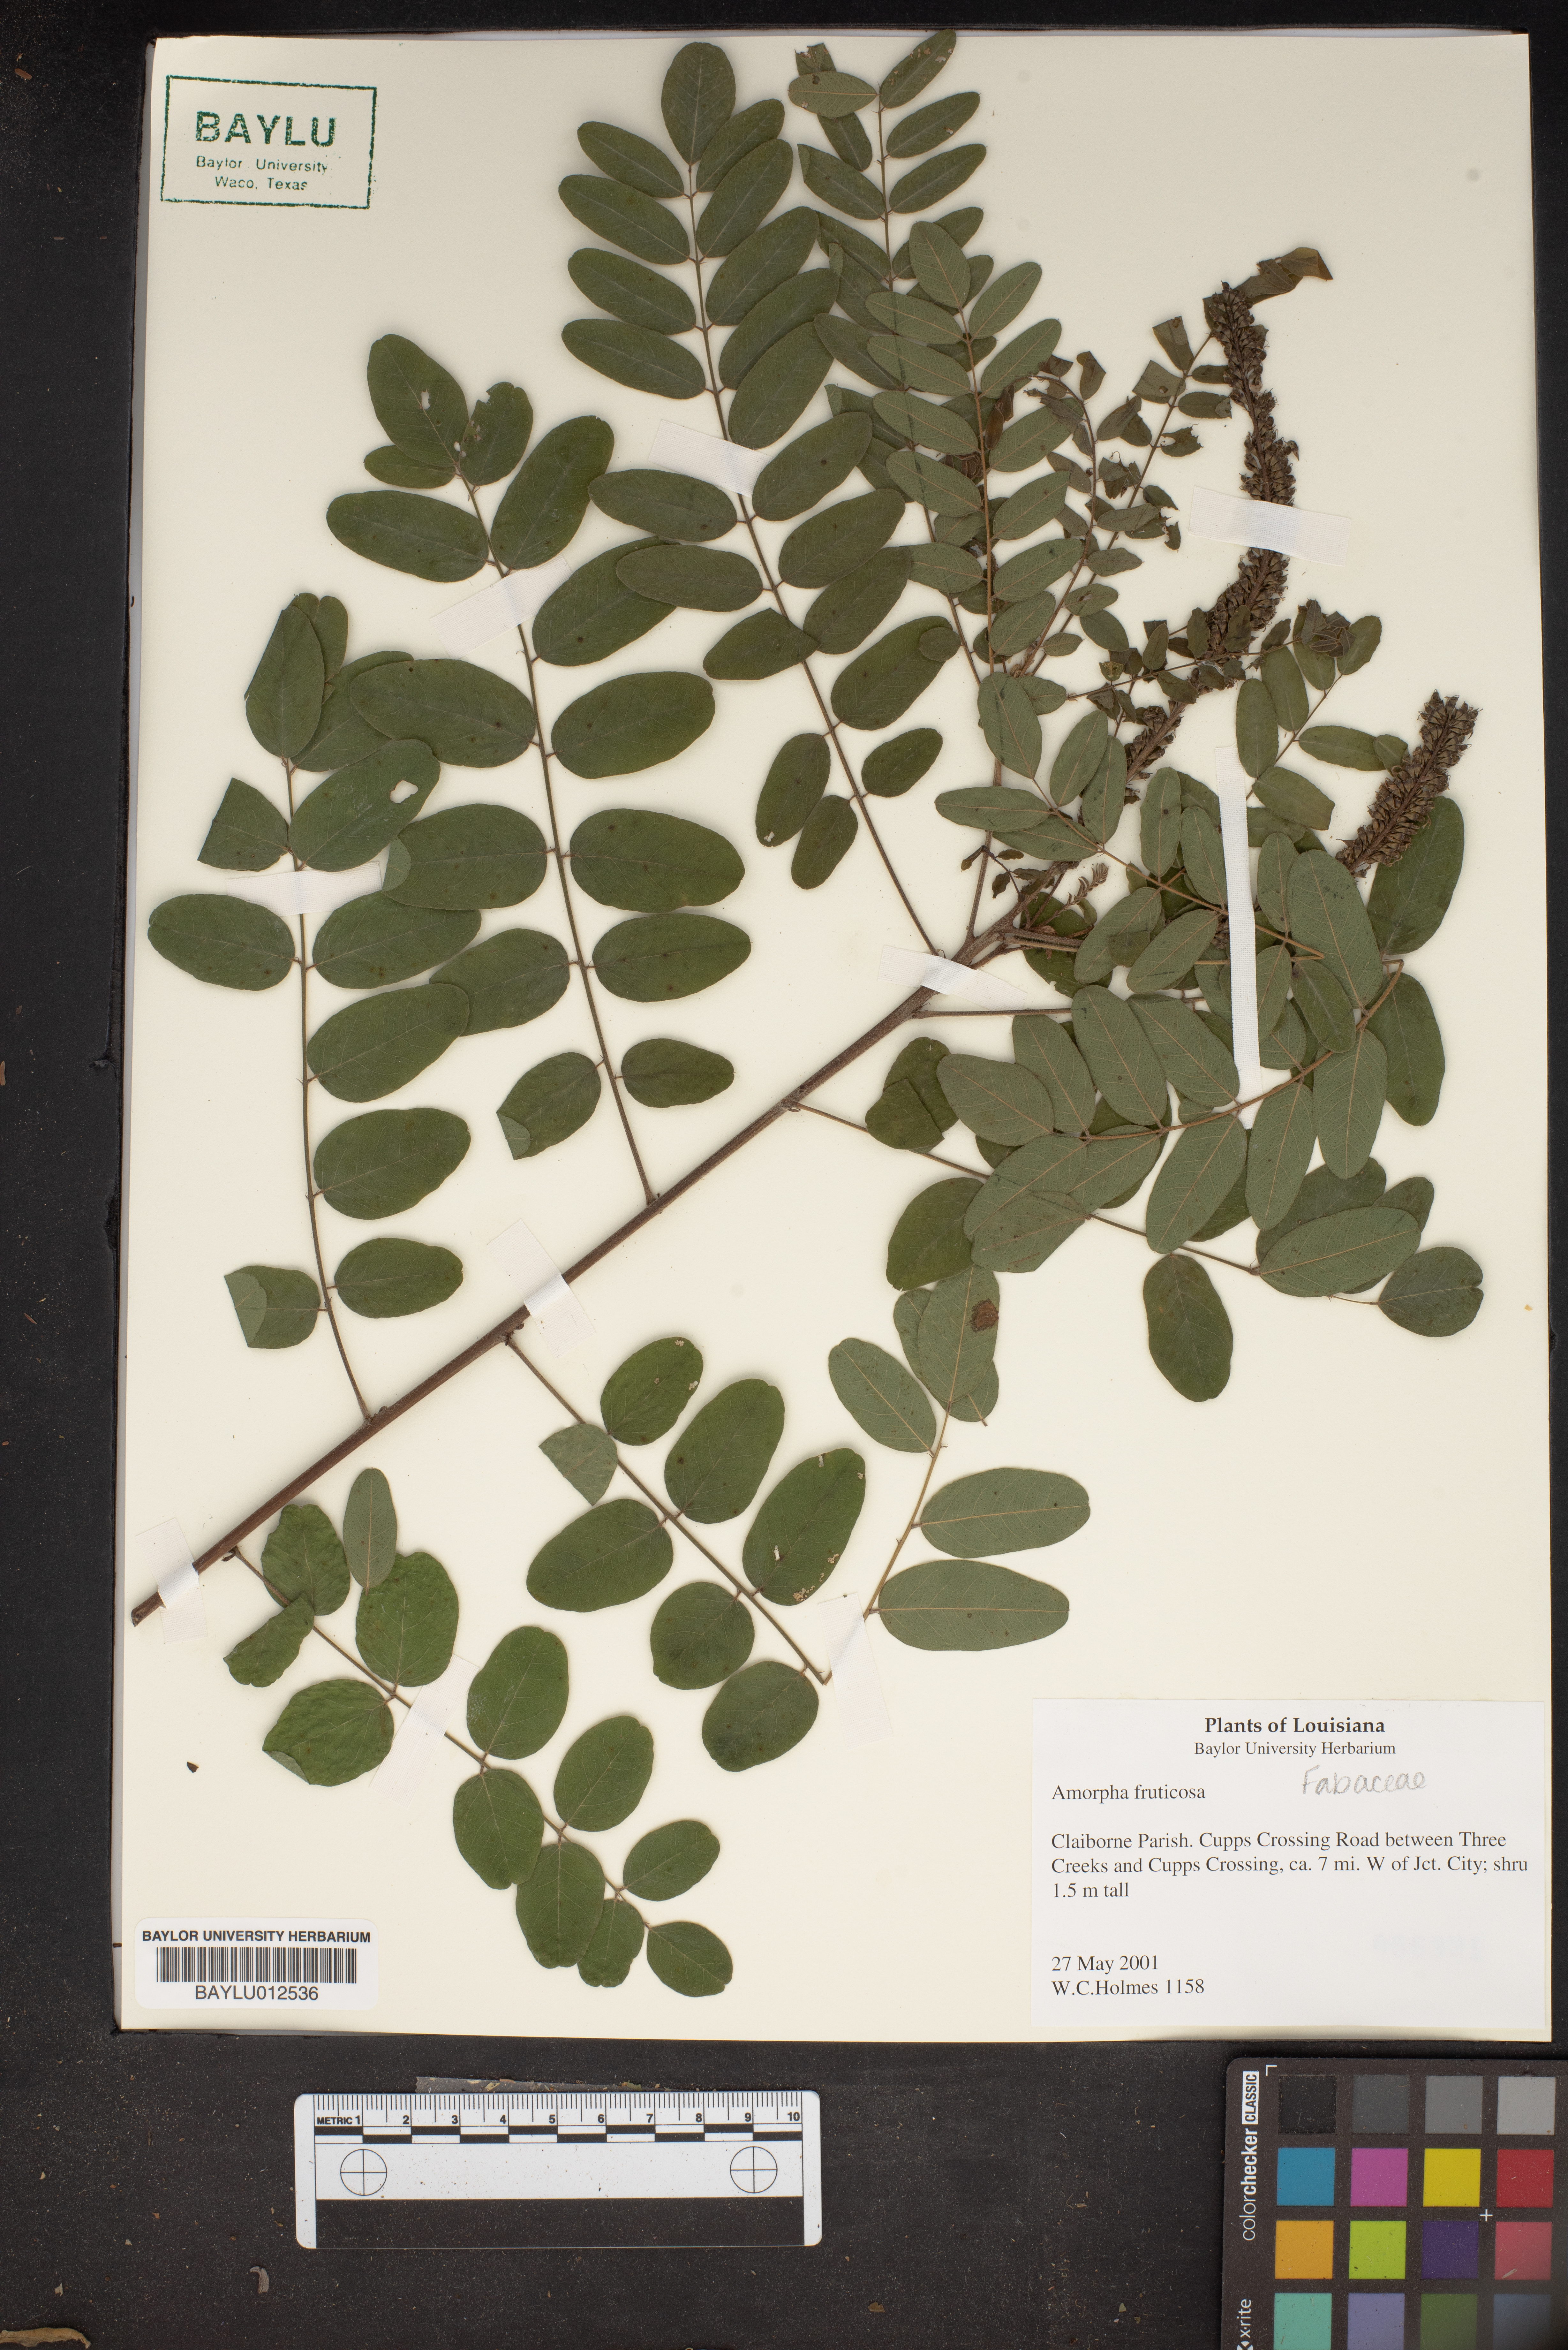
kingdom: Plantae
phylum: Tracheophyta
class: Magnoliopsida
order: Fabales
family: Fabaceae
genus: Amorpha
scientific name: Amorpha fruticosa
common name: False indigo
